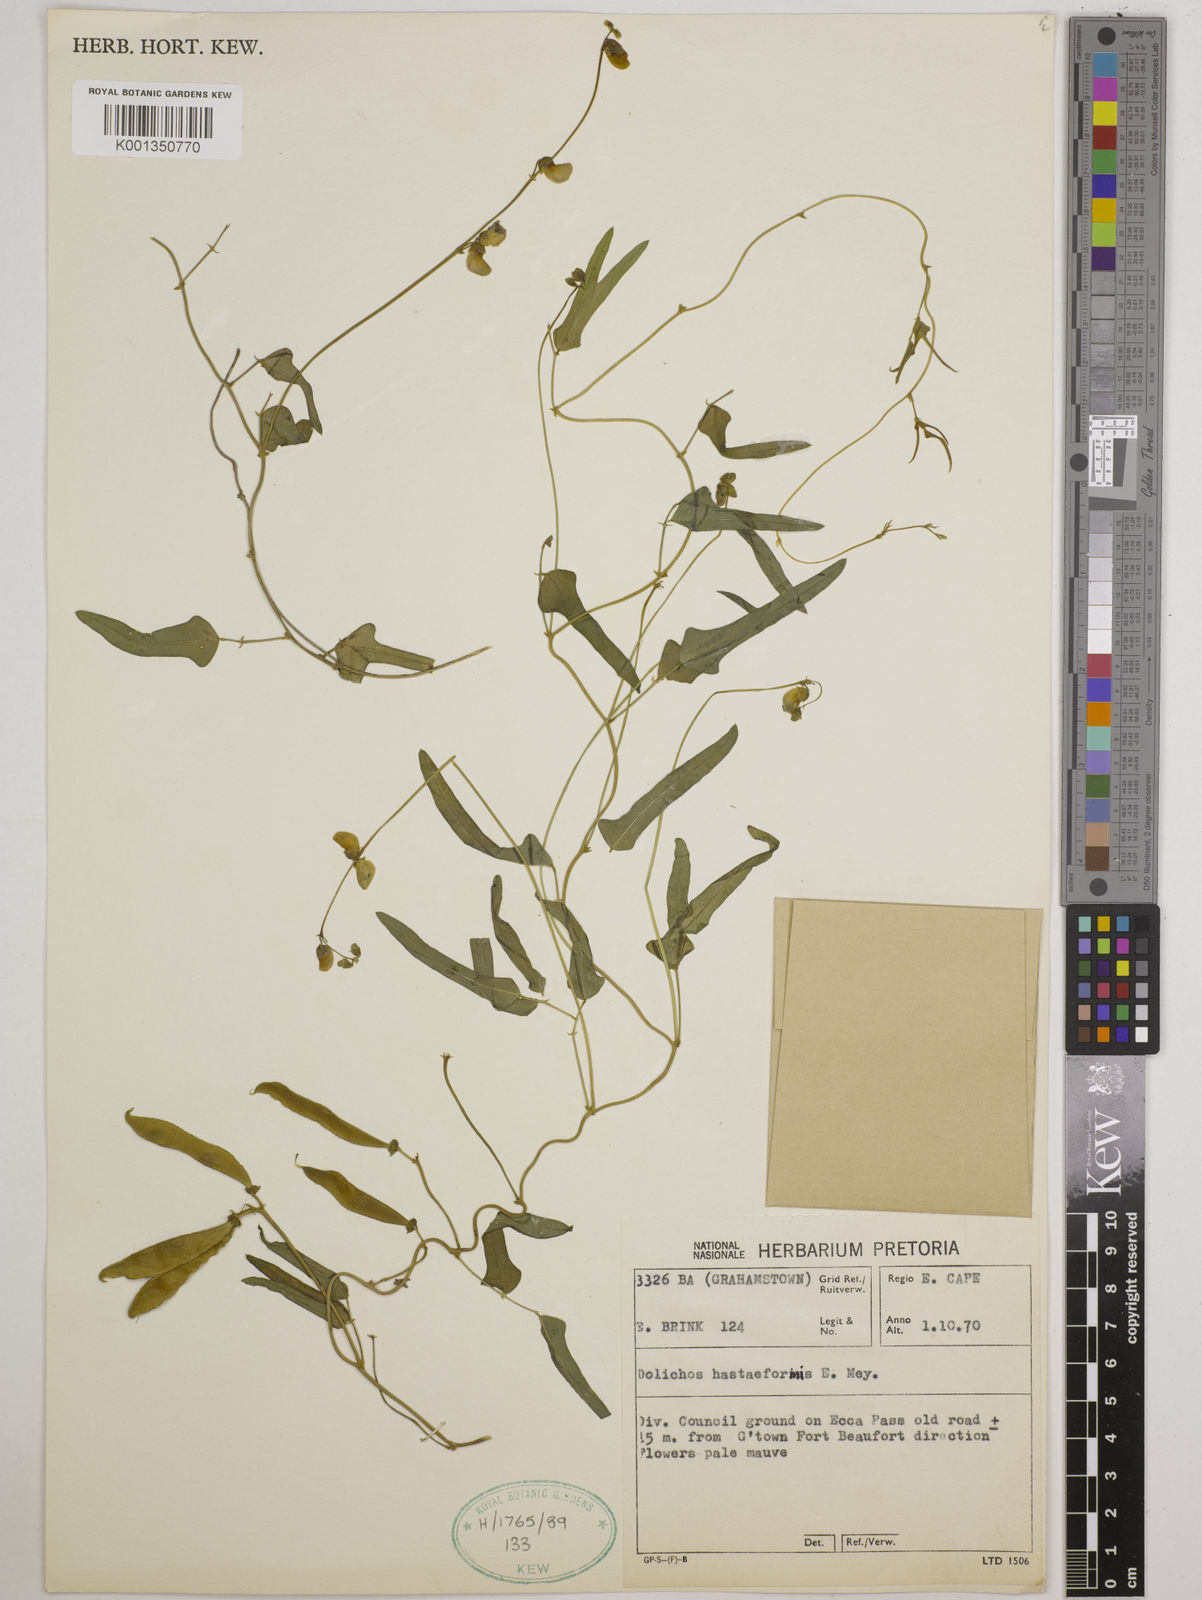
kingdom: Plantae
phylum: Tracheophyta
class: Magnoliopsida
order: Fabales
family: Fabaceae
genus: Dolichos
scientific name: Dolichos
